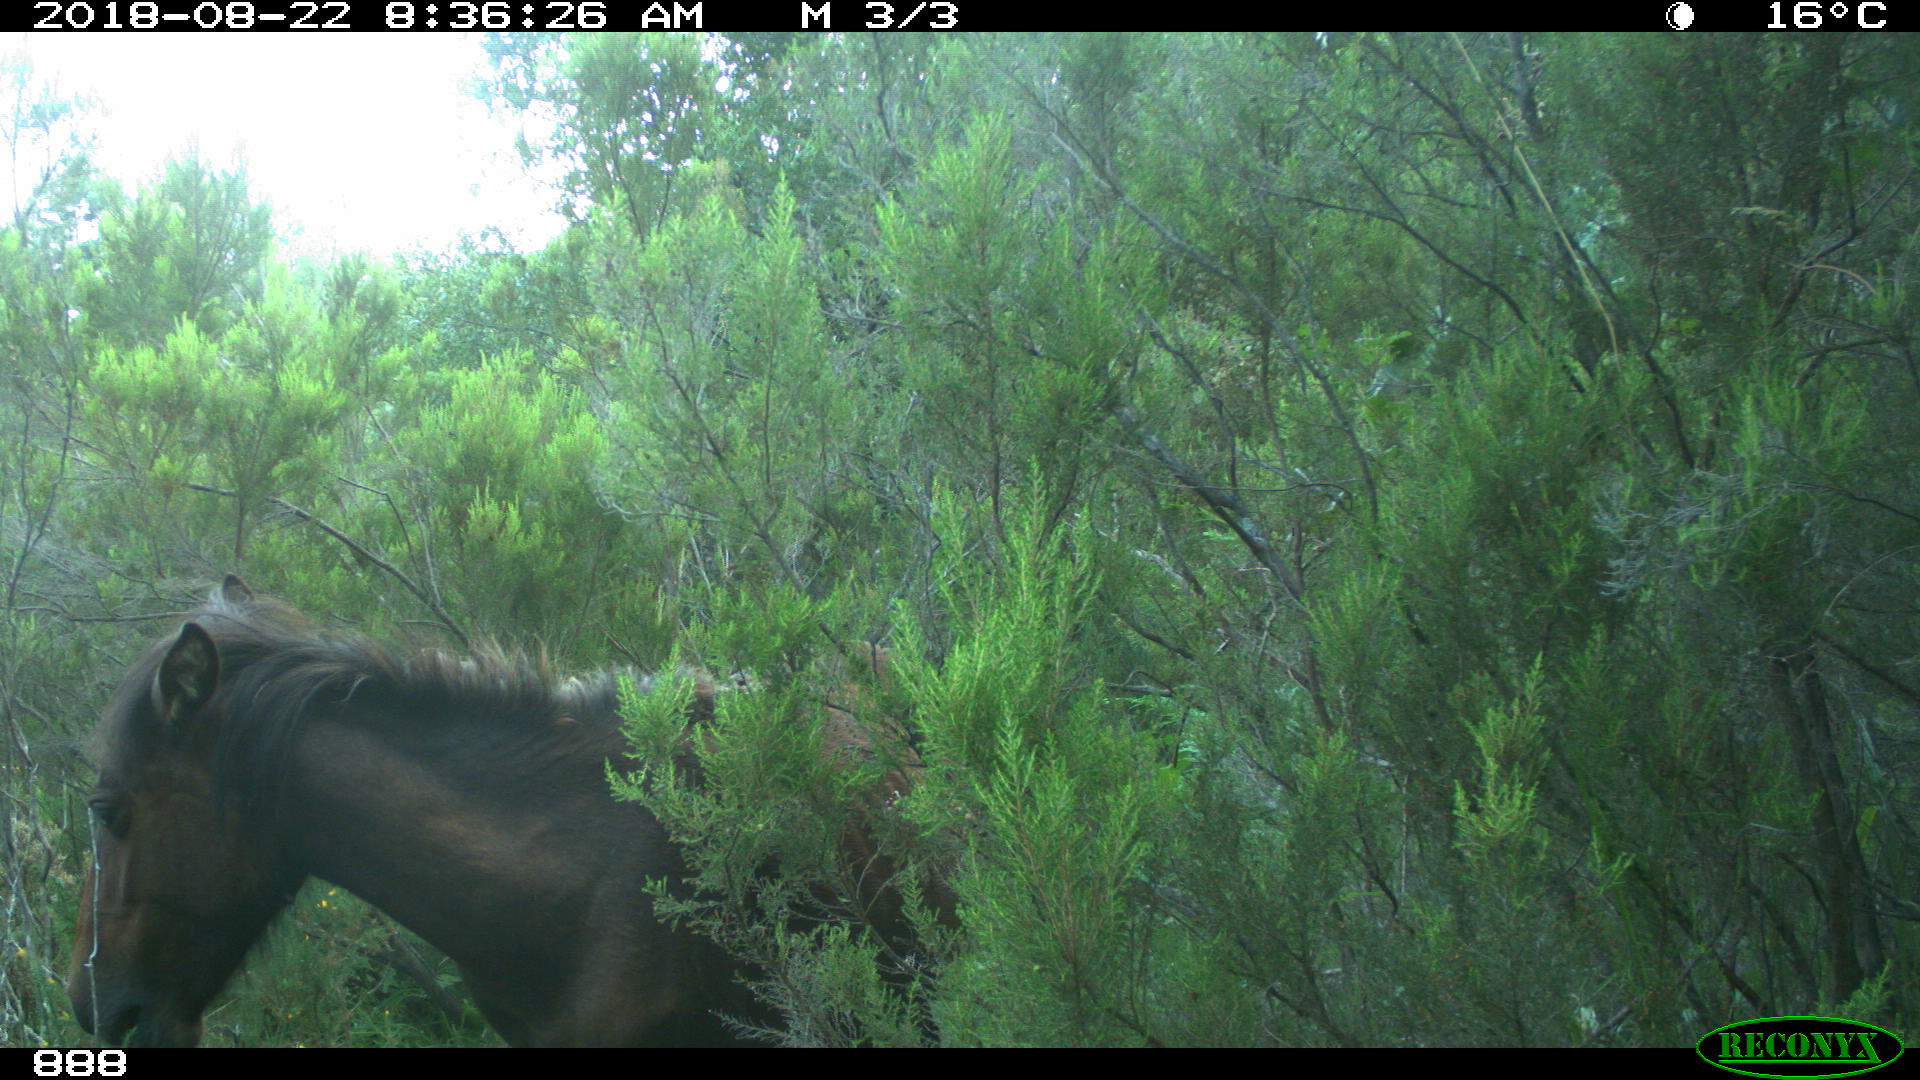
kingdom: Animalia
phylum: Chordata
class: Mammalia
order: Perissodactyla
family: Equidae
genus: Equus
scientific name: Equus caballus
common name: Horse
